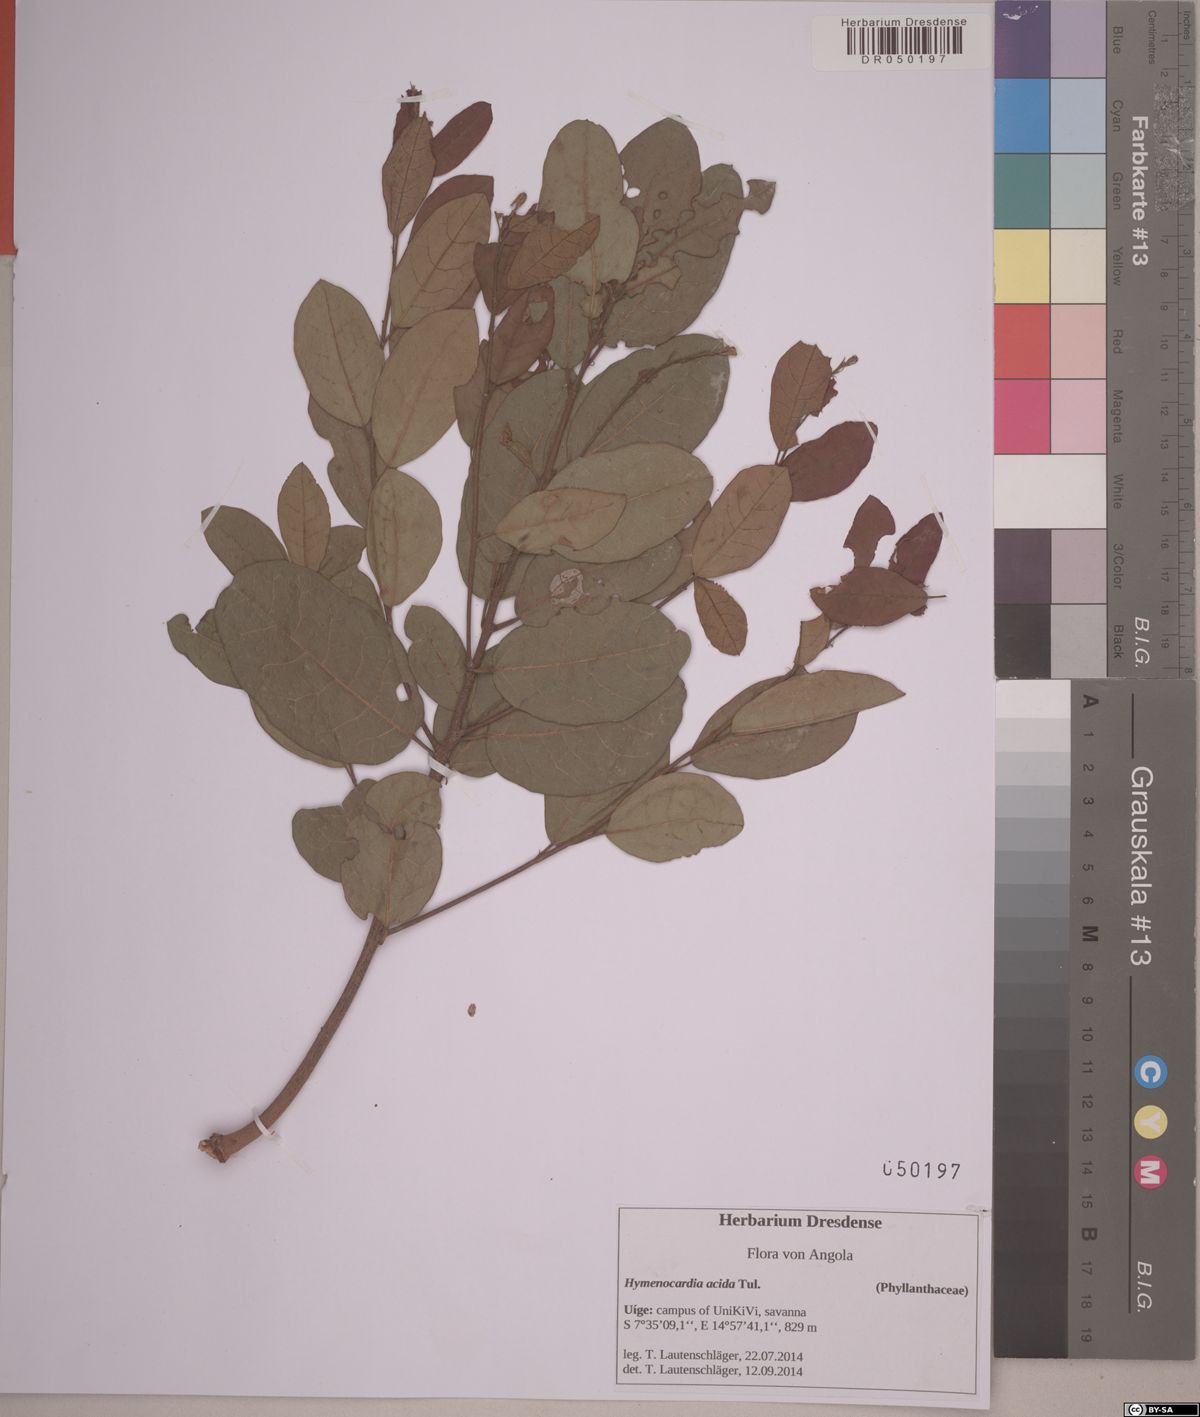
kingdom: Plantae
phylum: Tracheophyta
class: Magnoliopsida
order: Malpighiales
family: Phyllanthaceae
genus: Hymenocardia
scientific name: Hymenocardia acida
